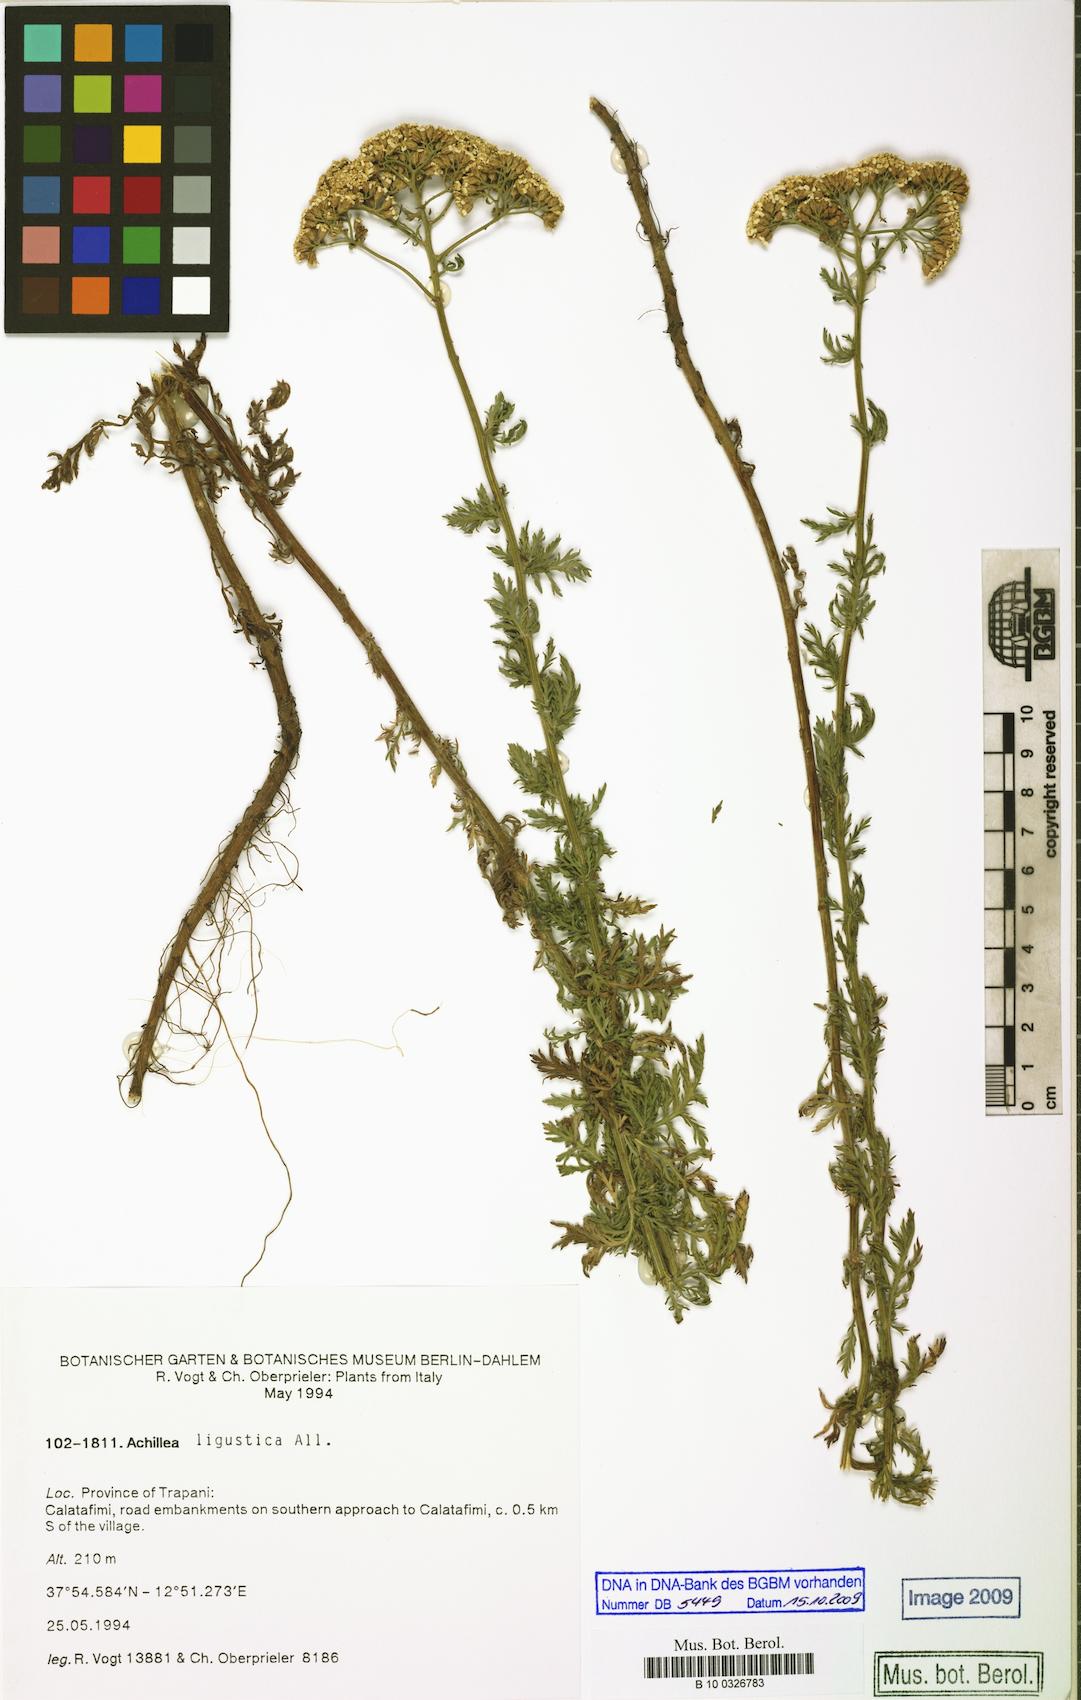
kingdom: Plantae
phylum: Tracheophyta
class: Magnoliopsida
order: Asterales
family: Asteraceae
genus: Achillea
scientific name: Achillea ligustica
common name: Southern yarrow
